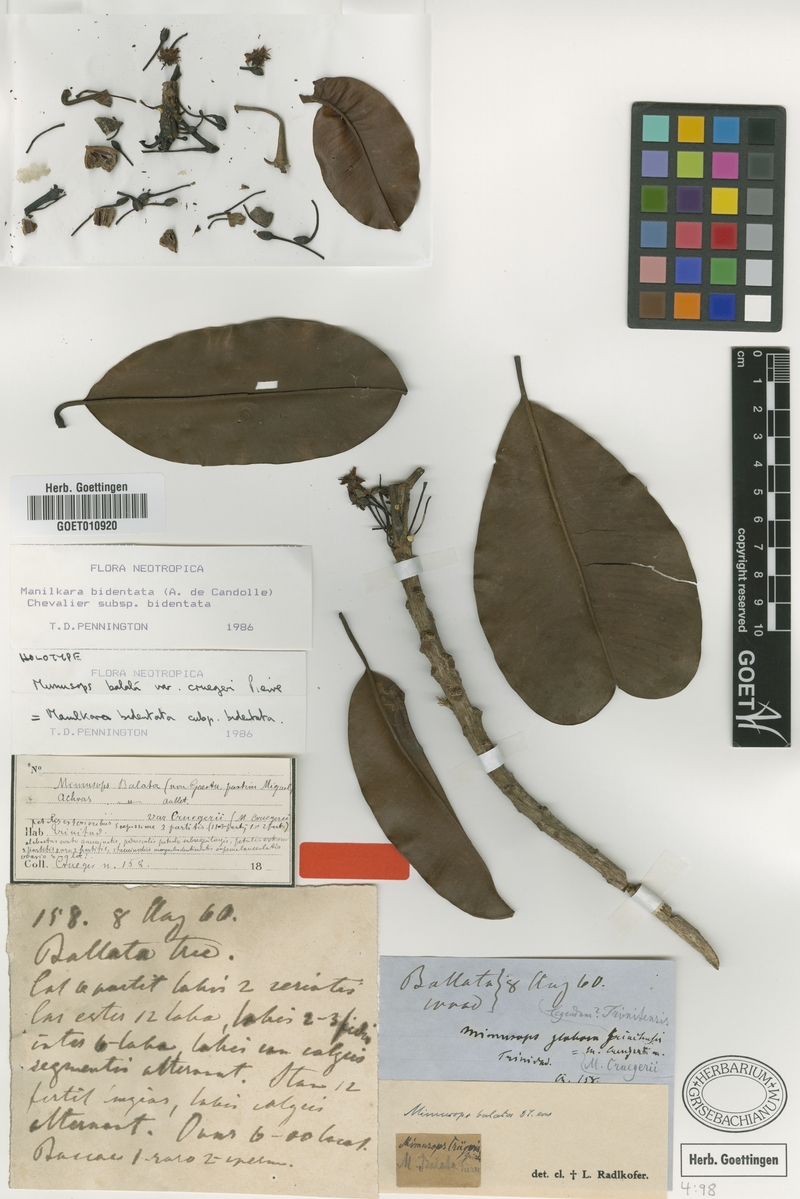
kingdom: Plantae
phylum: Tracheophyta
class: Magnoliopsida
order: Ericales
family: Sapotaceae
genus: Manilkara
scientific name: Manilkara bidentata
